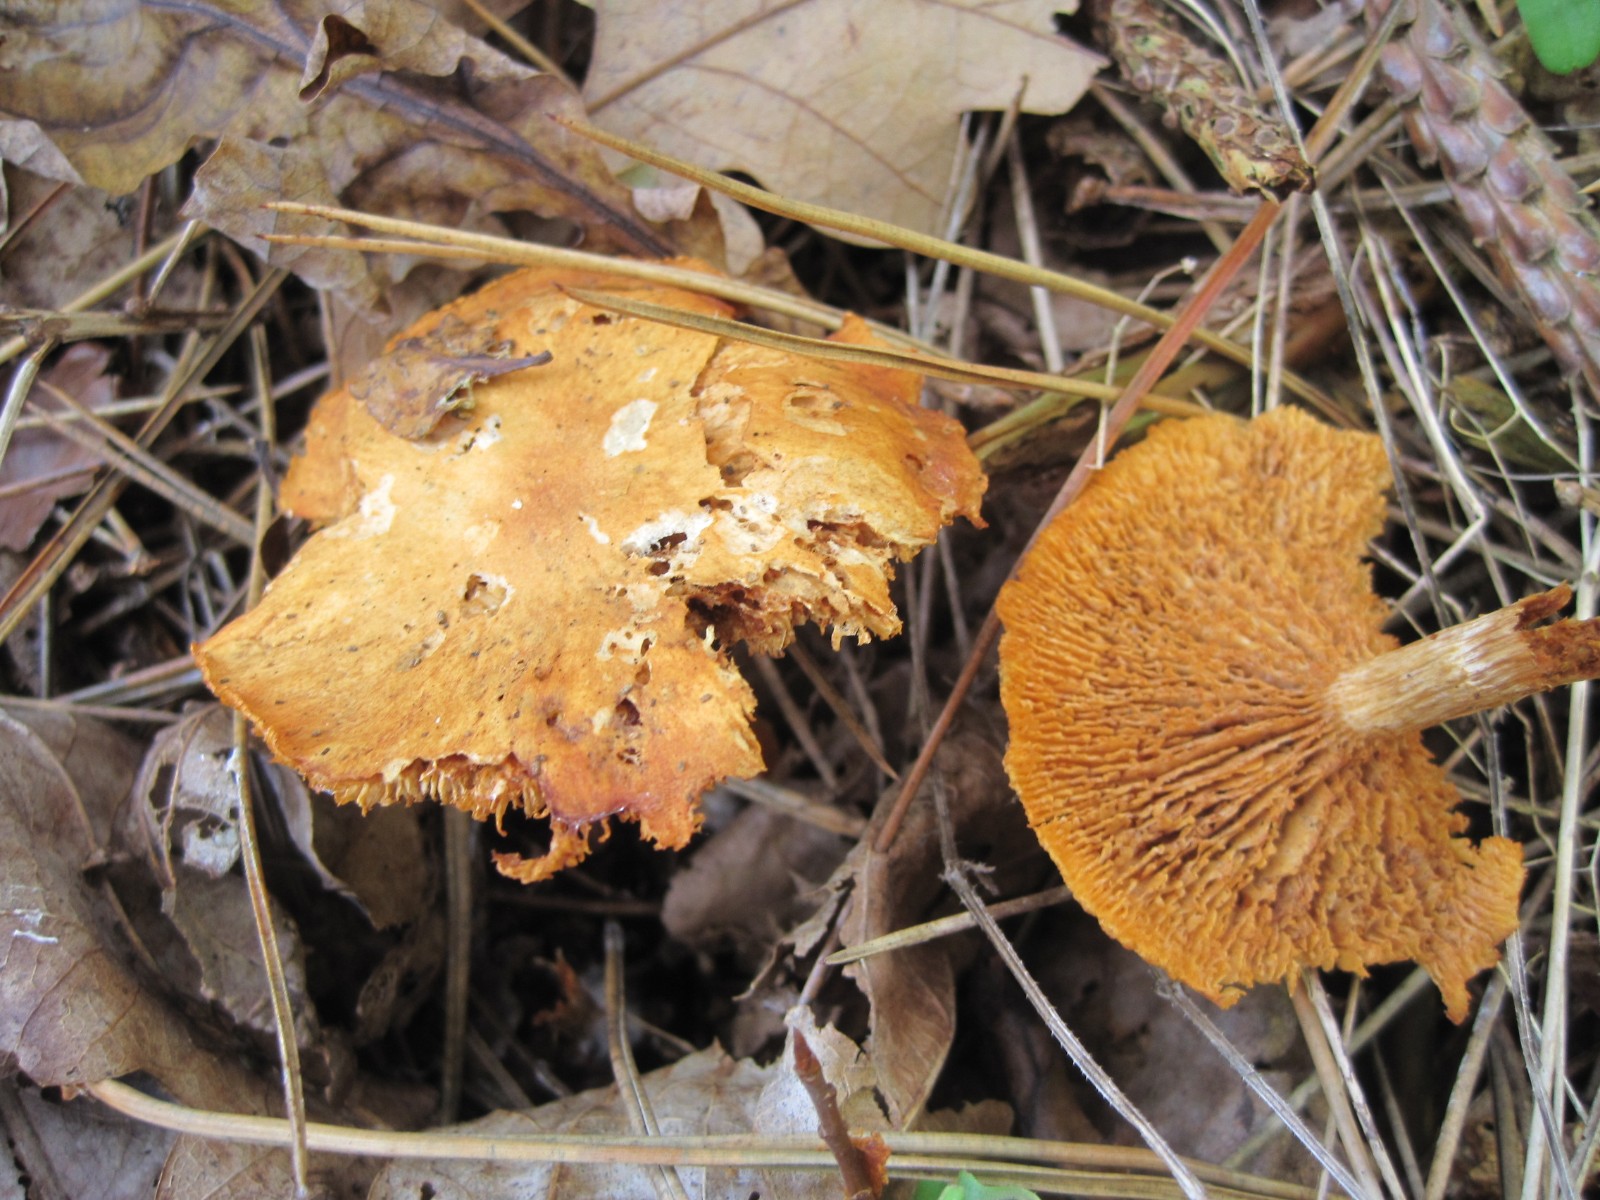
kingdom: Fungi
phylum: Basidiomycota
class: Agaricomycetes
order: Agaricales
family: Hymenogastraceae
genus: Gymnopilus
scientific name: Gymnopilus penetrans
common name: plettet flammehat
